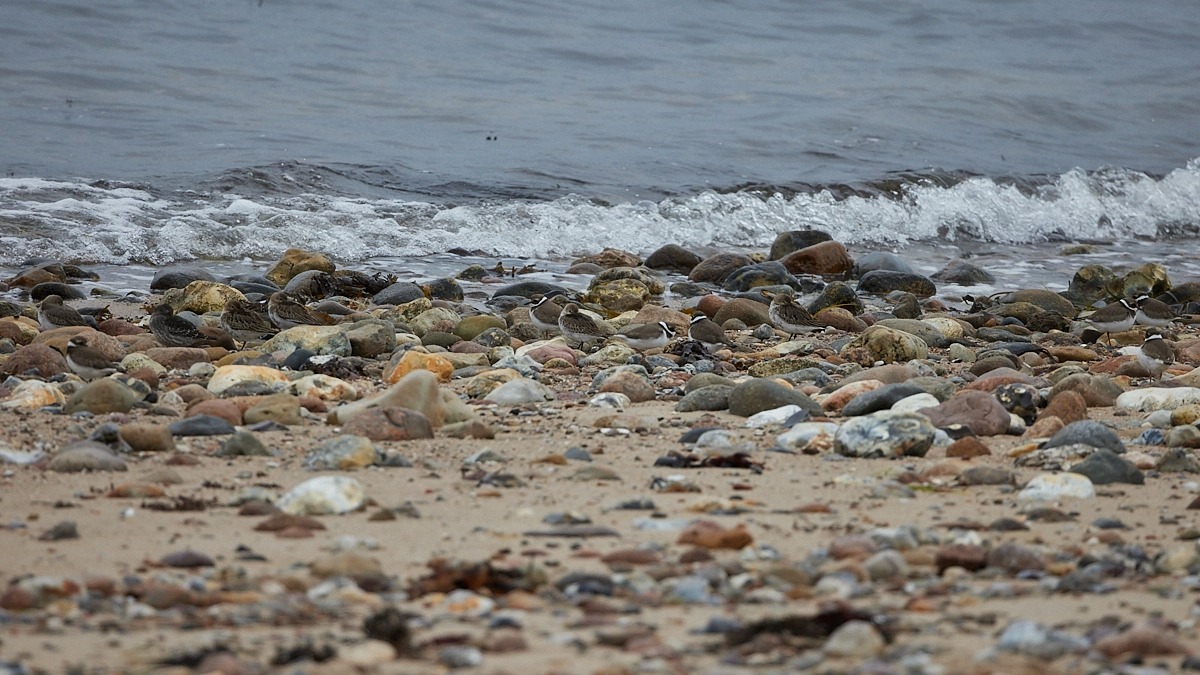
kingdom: Animalia
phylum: Chordata
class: Aves
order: Charadriiformes
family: Charadriidae
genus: Charadrius
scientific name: Charadrius hiaticula
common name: Stor præstekrave
